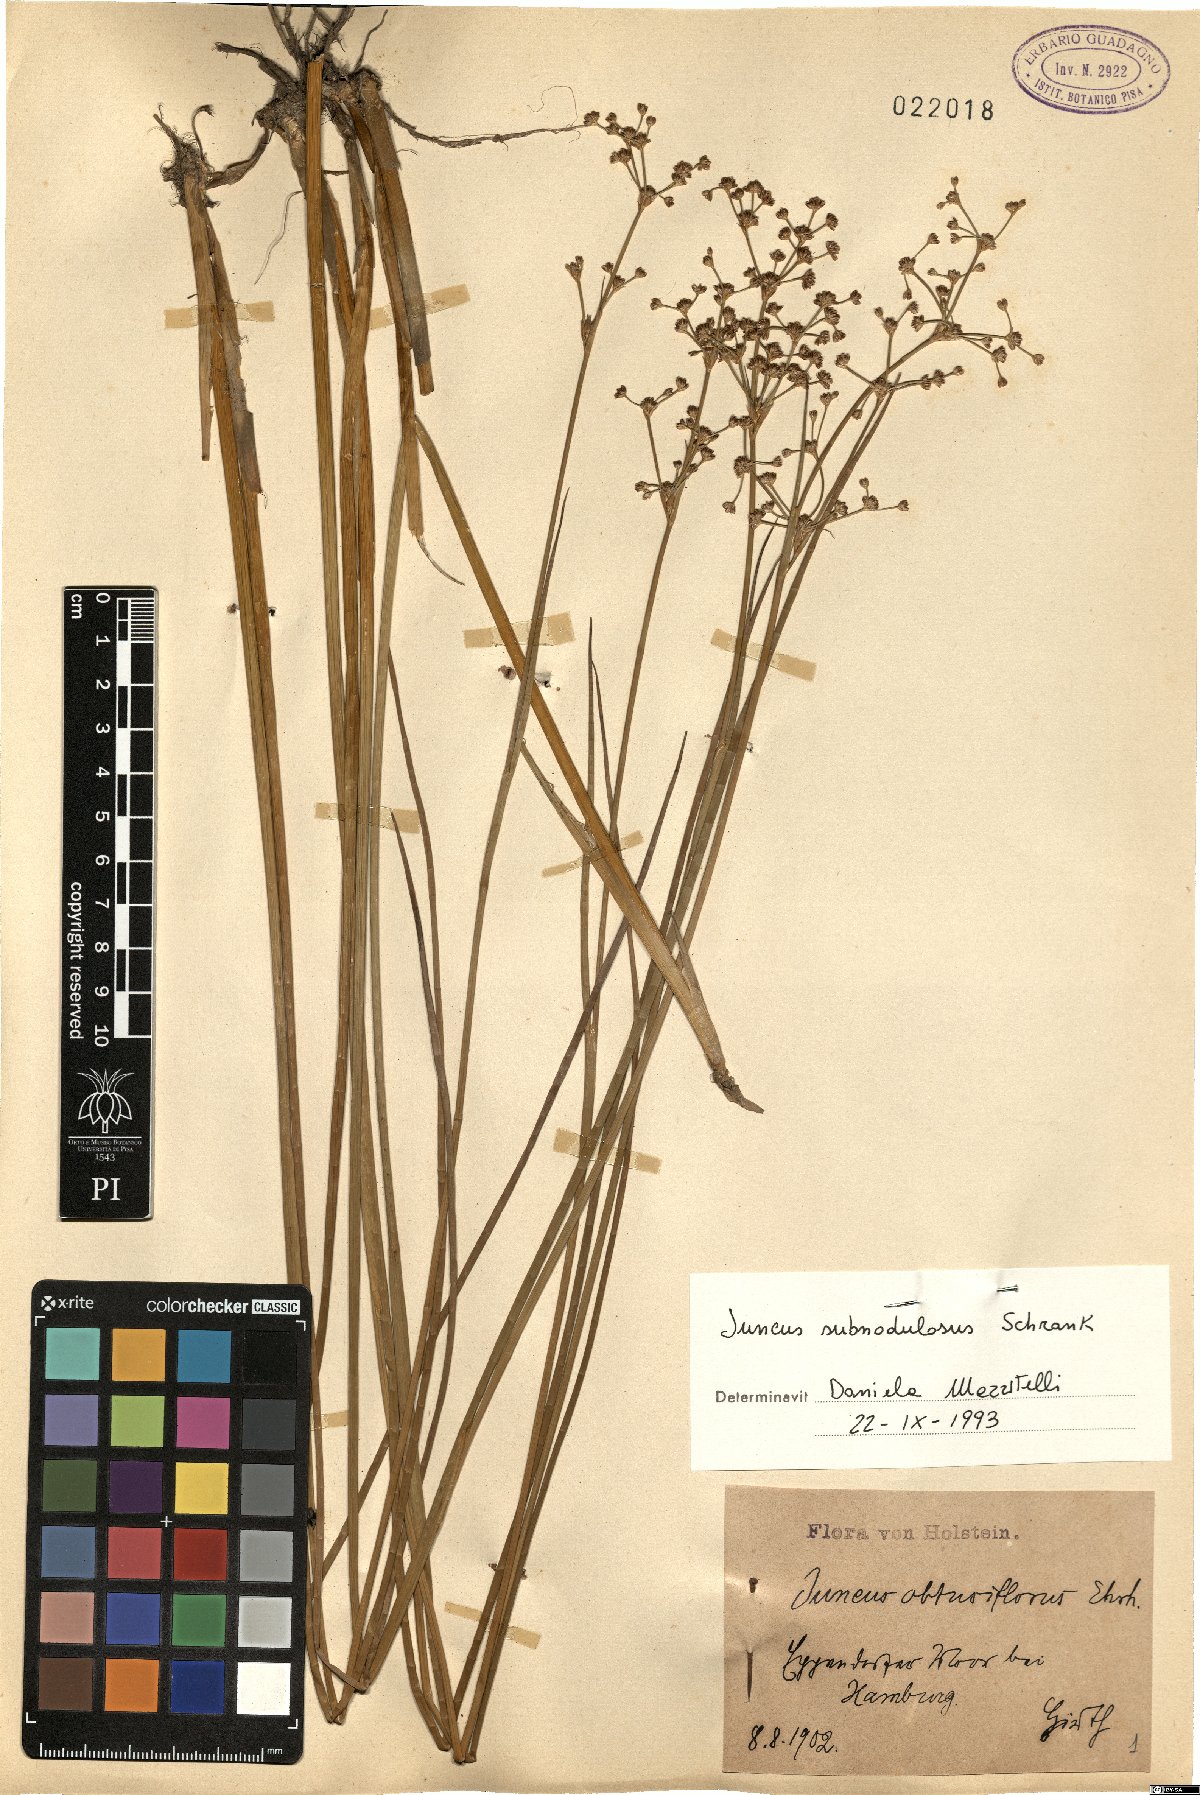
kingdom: Plantae
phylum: Tracheophyta
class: Liliopsida
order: Poales
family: Juncaceae
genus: Juncus
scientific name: Juncus subnodulosus
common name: Blunt-flowered rush
